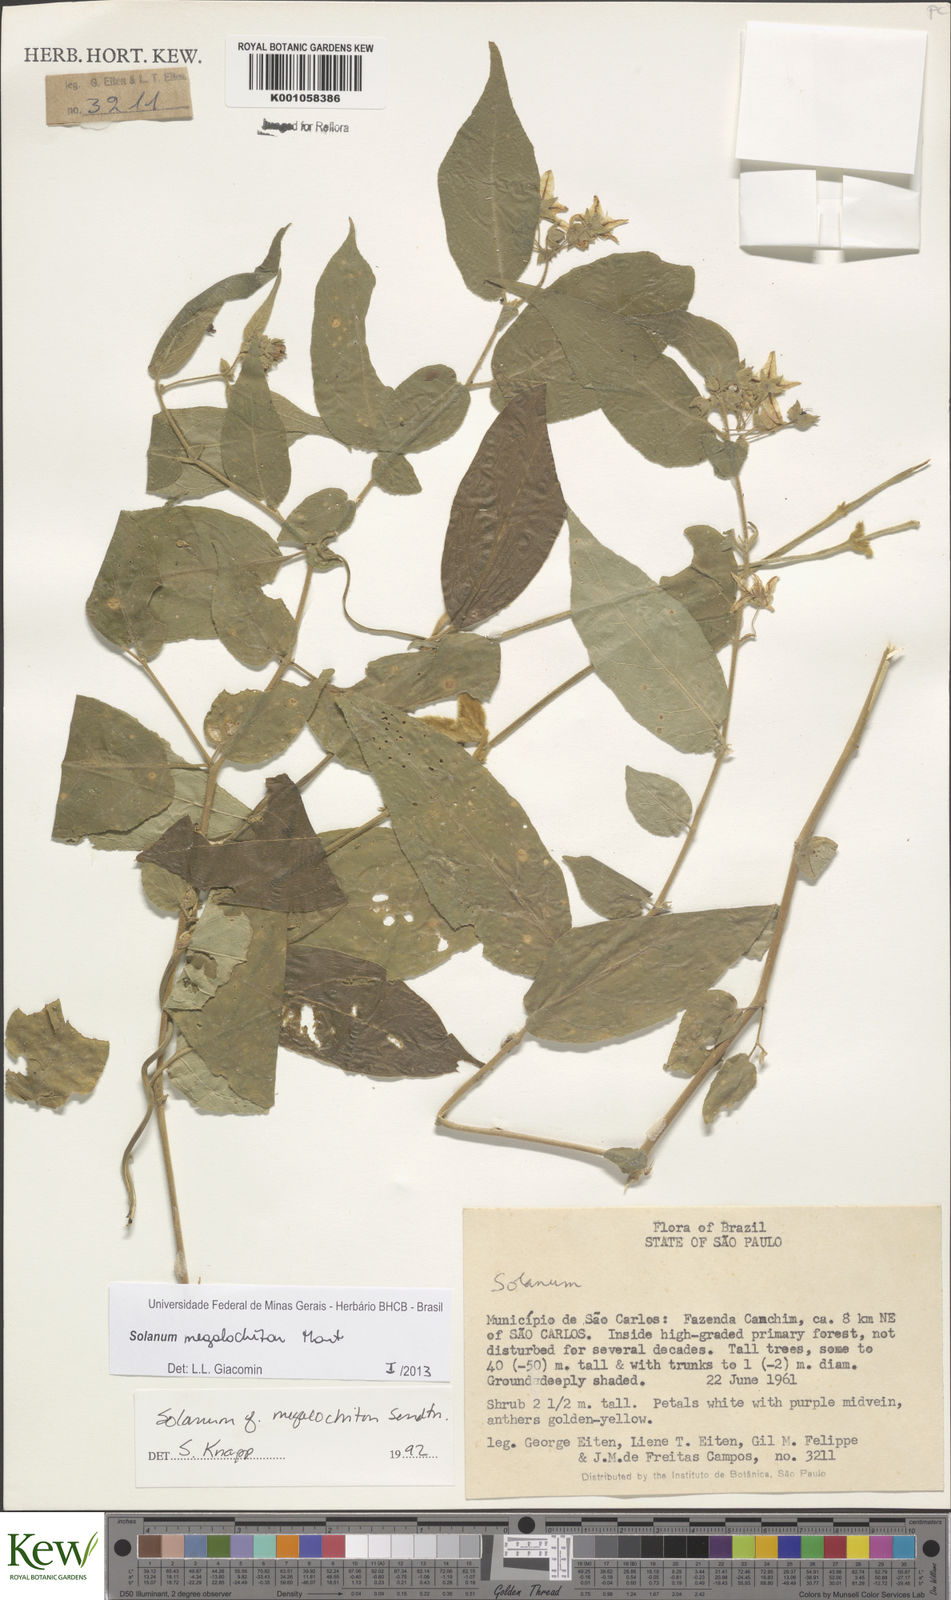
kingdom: Plantae
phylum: Tracheophyta
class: Magnoliopsida
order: Solanales
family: Solanaceae
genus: Solanum
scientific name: Solanum didymum
